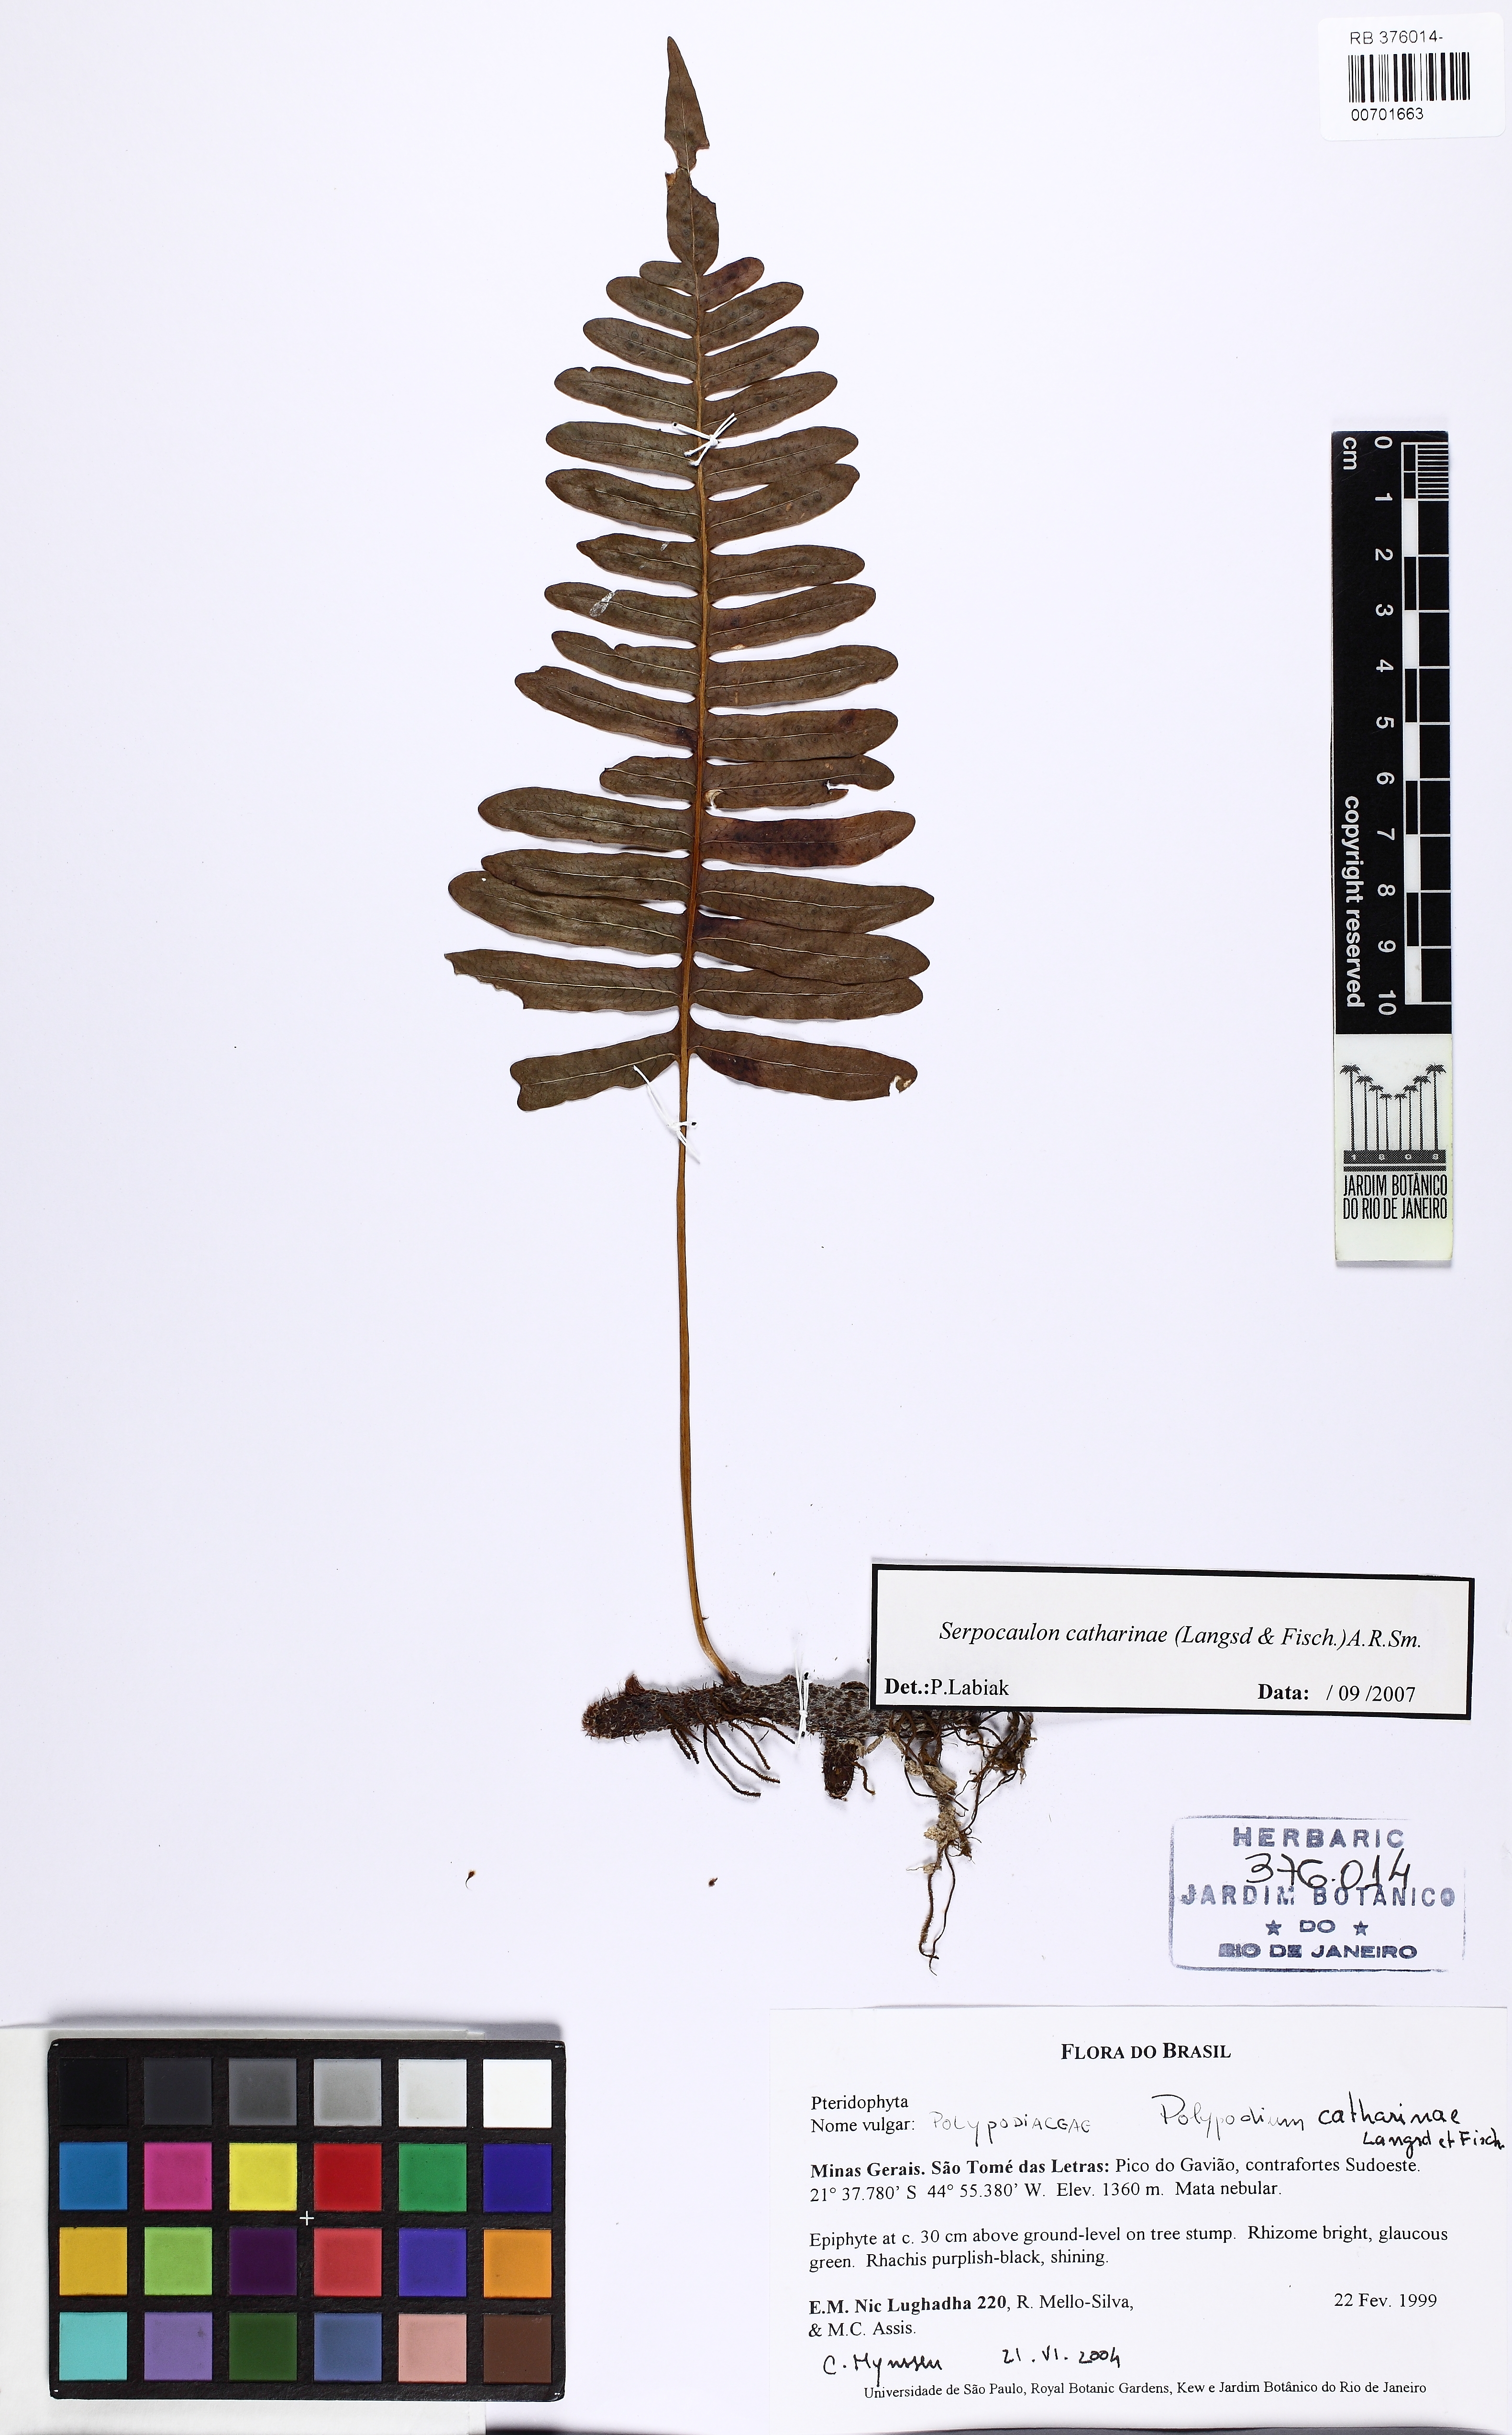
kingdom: Plantae
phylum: Tracheophyta
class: Polypodiopsida
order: Polypodiales
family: Polypodiaceae
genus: Serpocaulon
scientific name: Serpocaulon catharinae
